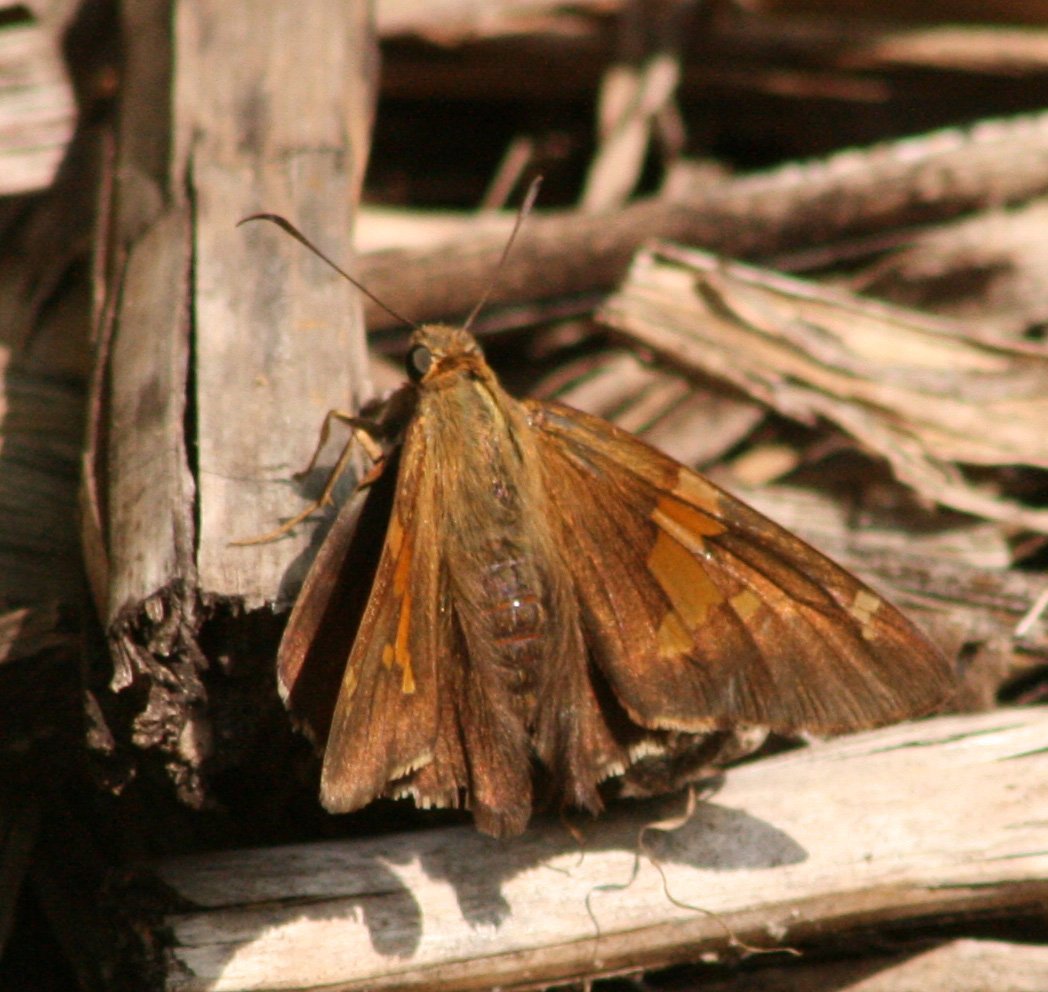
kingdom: Animalia
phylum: Arthropoda
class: Insecta
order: Lepidoptera
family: Hesperiidae
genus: Epargyreus
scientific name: Epargyreus clarus
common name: Silver-spotted Skipper
